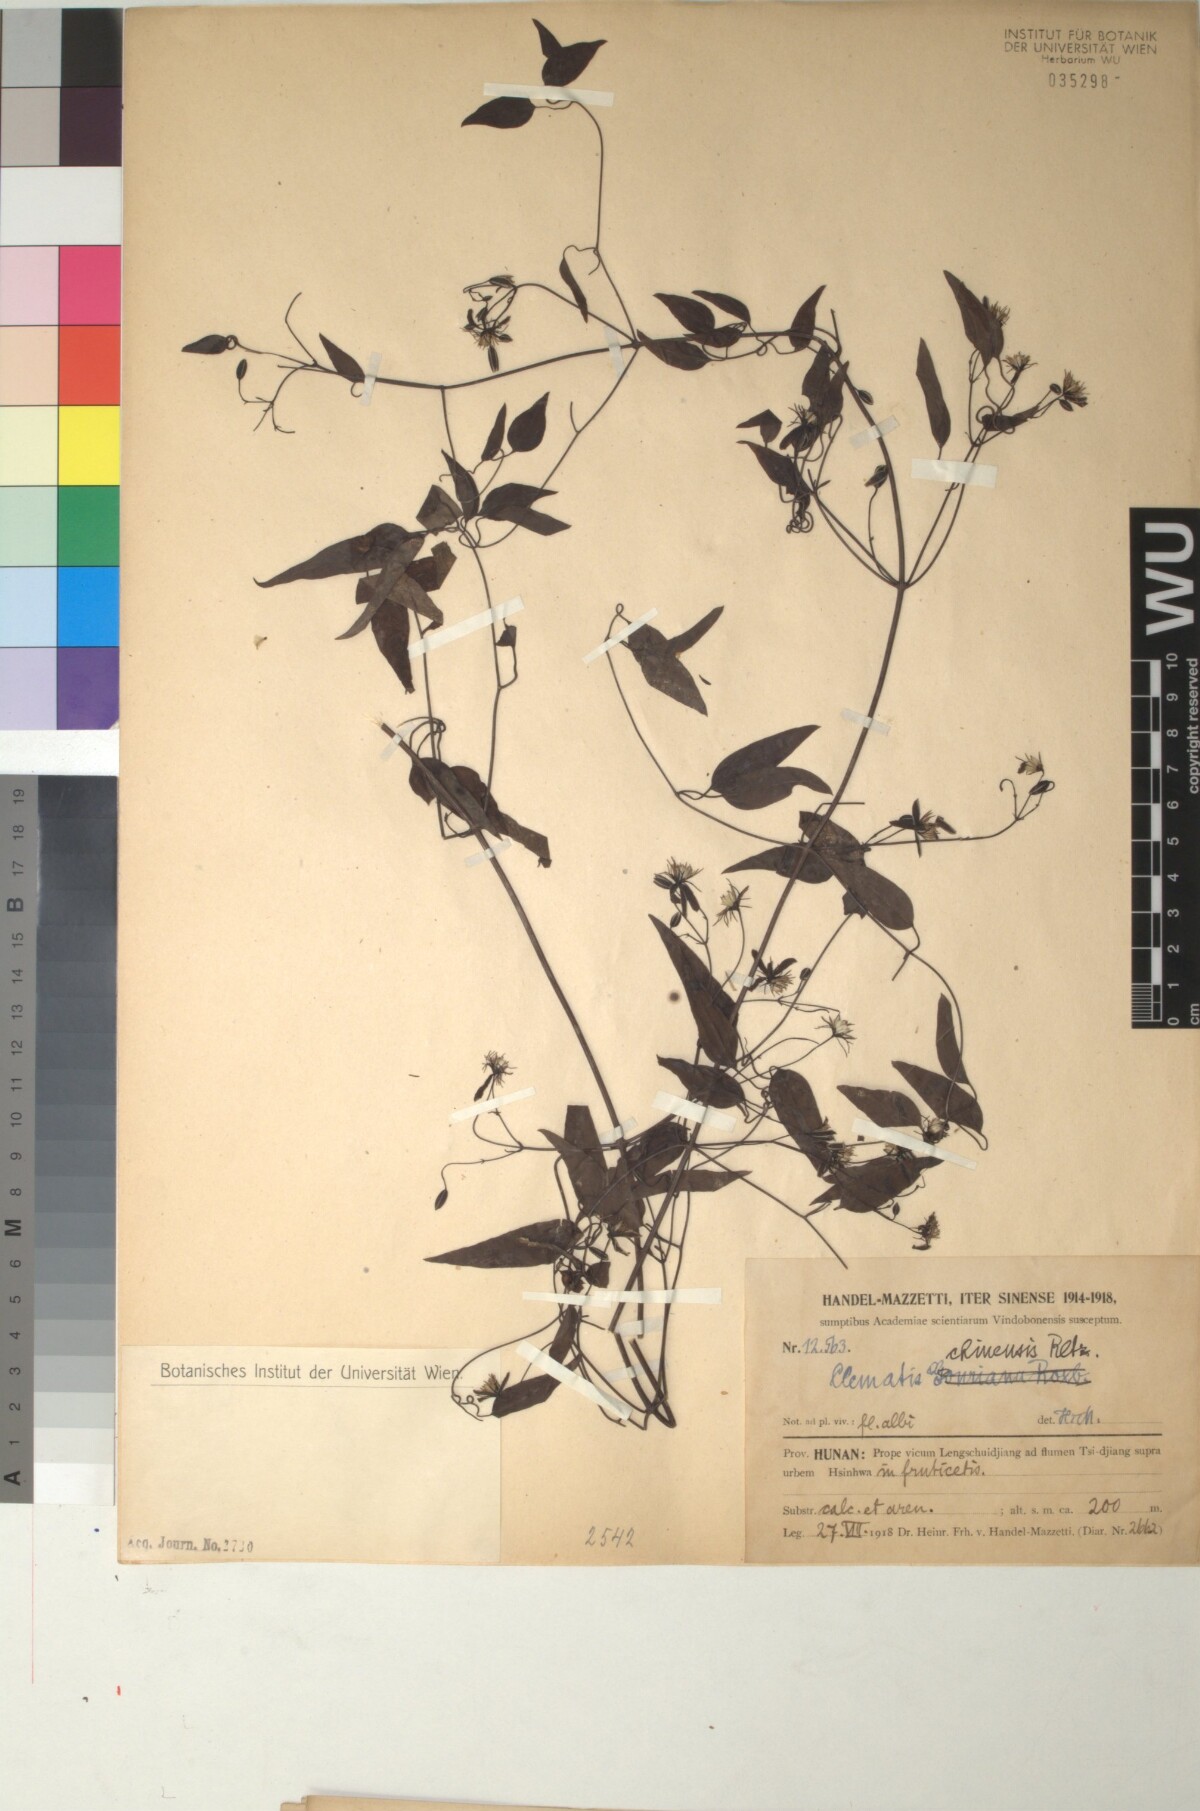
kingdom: Plantae
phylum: Tracheophyta
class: Magnoliopsida
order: Ranunculales
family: Ranunculaceae
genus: Clematis
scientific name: Clematis chinensis
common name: Chinese clematis
